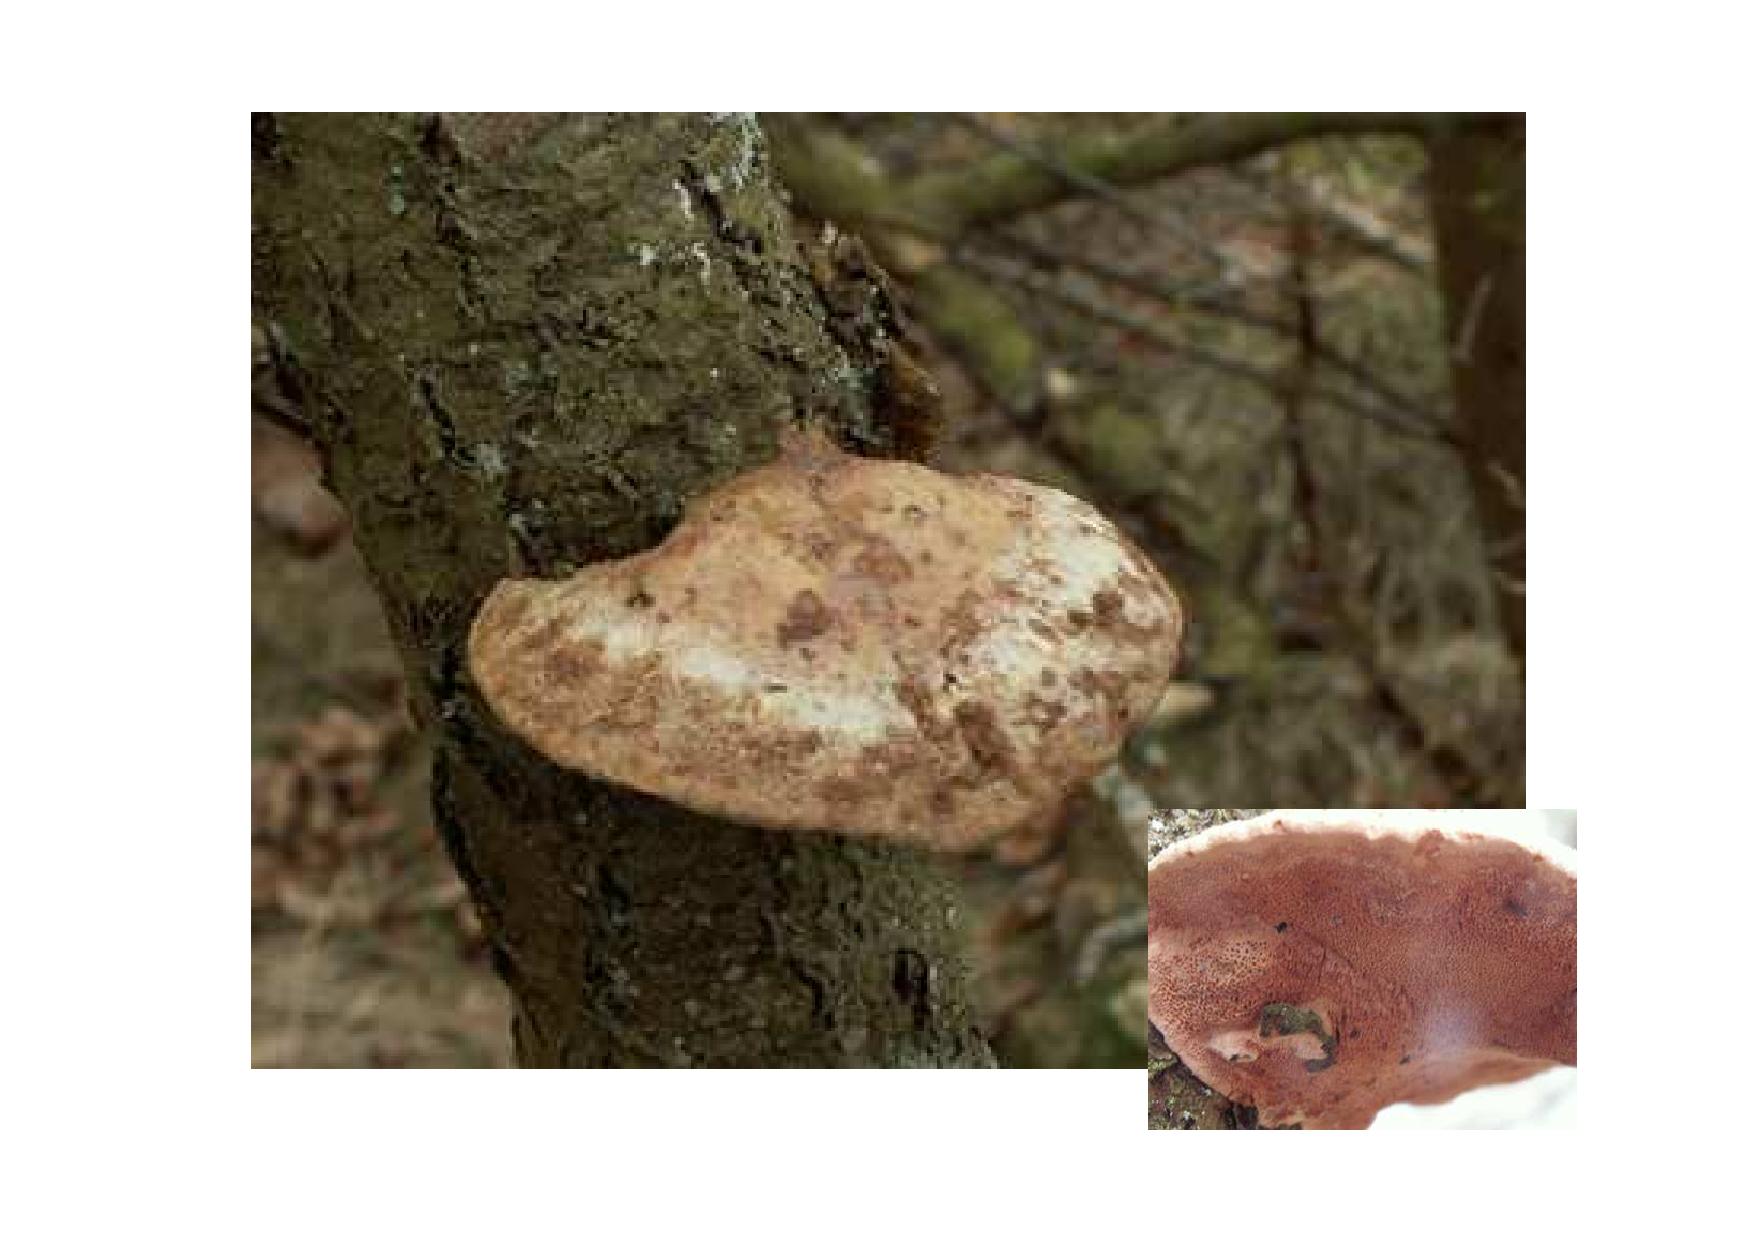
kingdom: Fungi
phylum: Basidiomycota
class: Agaricomycetes
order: Polyporales
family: Phanerochaetaceae
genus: Hapalopilus
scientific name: Hapalopilus rutilans
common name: rødlig okkerporesvamp
